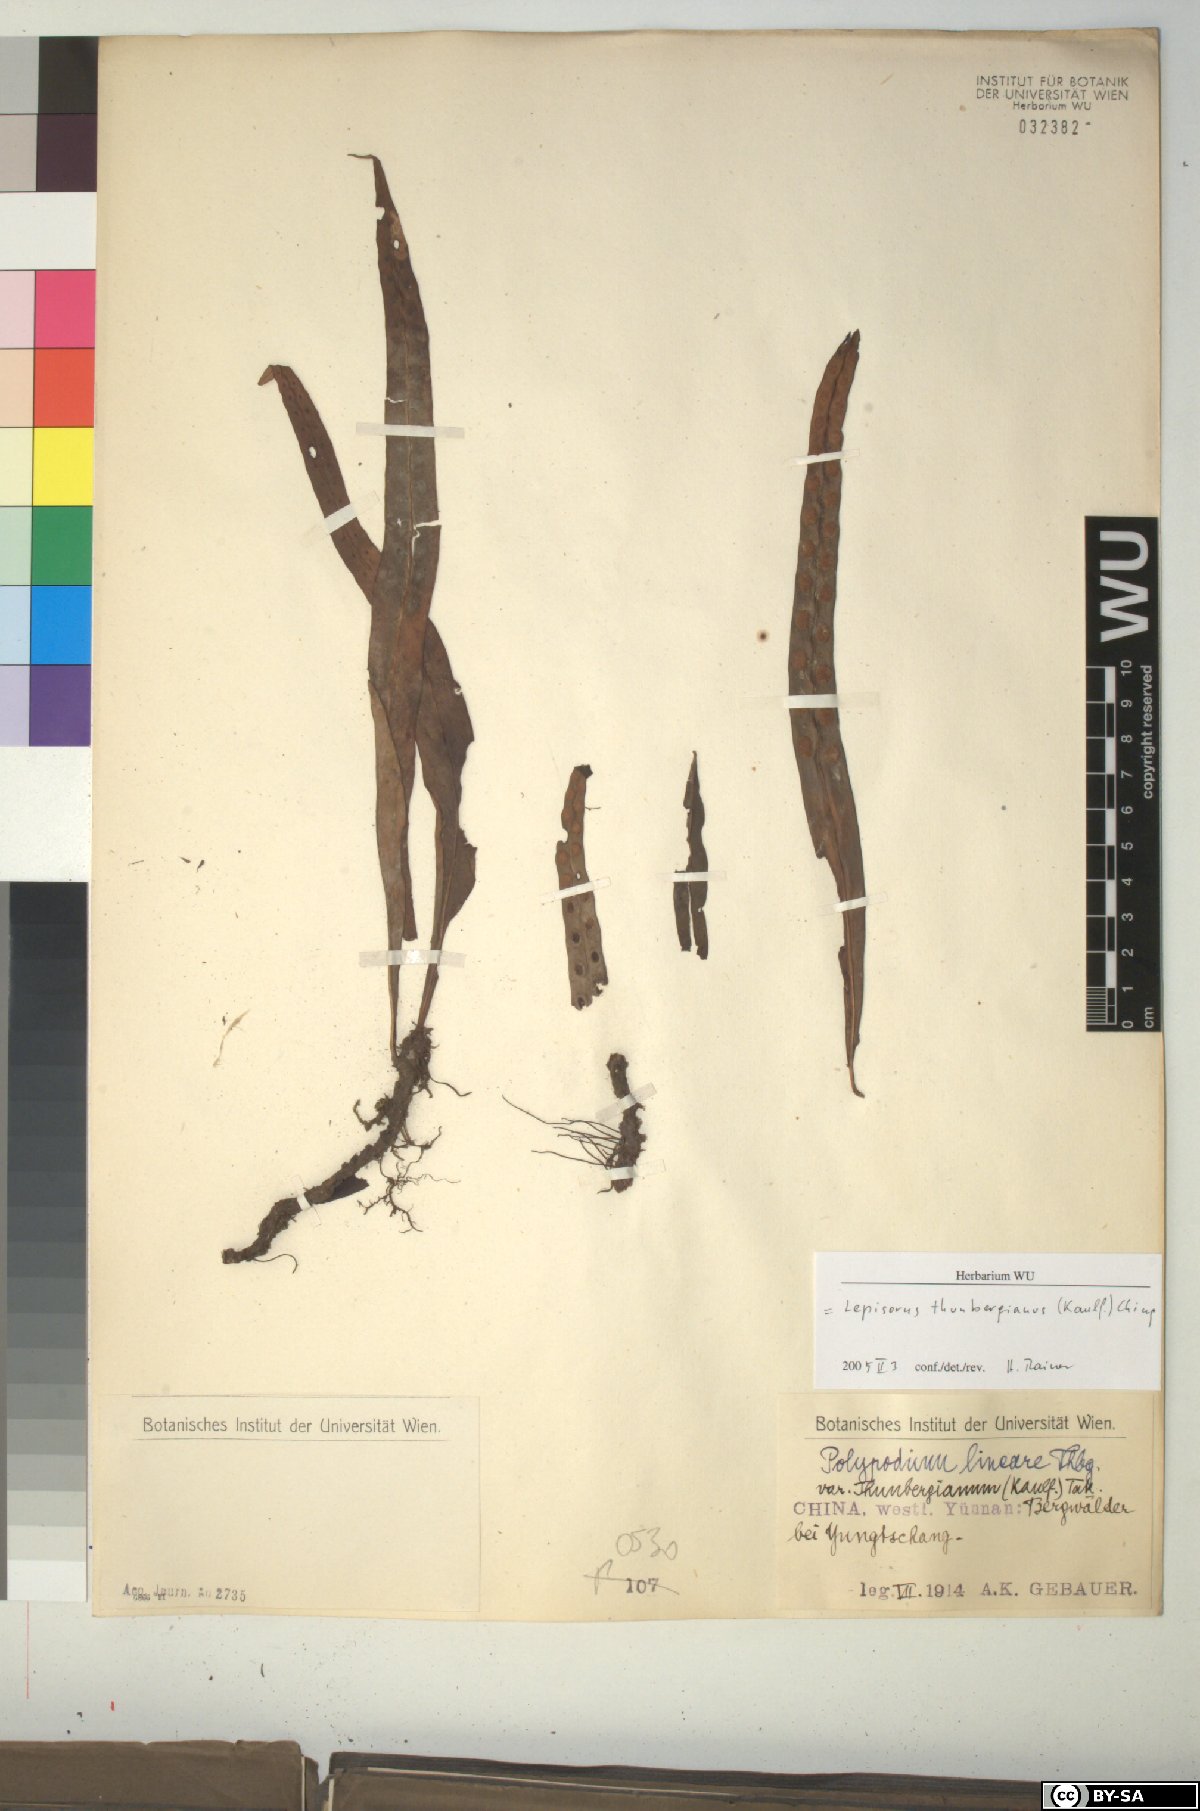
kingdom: Plantae
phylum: Tracheophyta
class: Polypodiopsida
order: Polypodiales
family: Polypodiaceae
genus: Lepisorus
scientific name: Lepisorus thunbergianus
